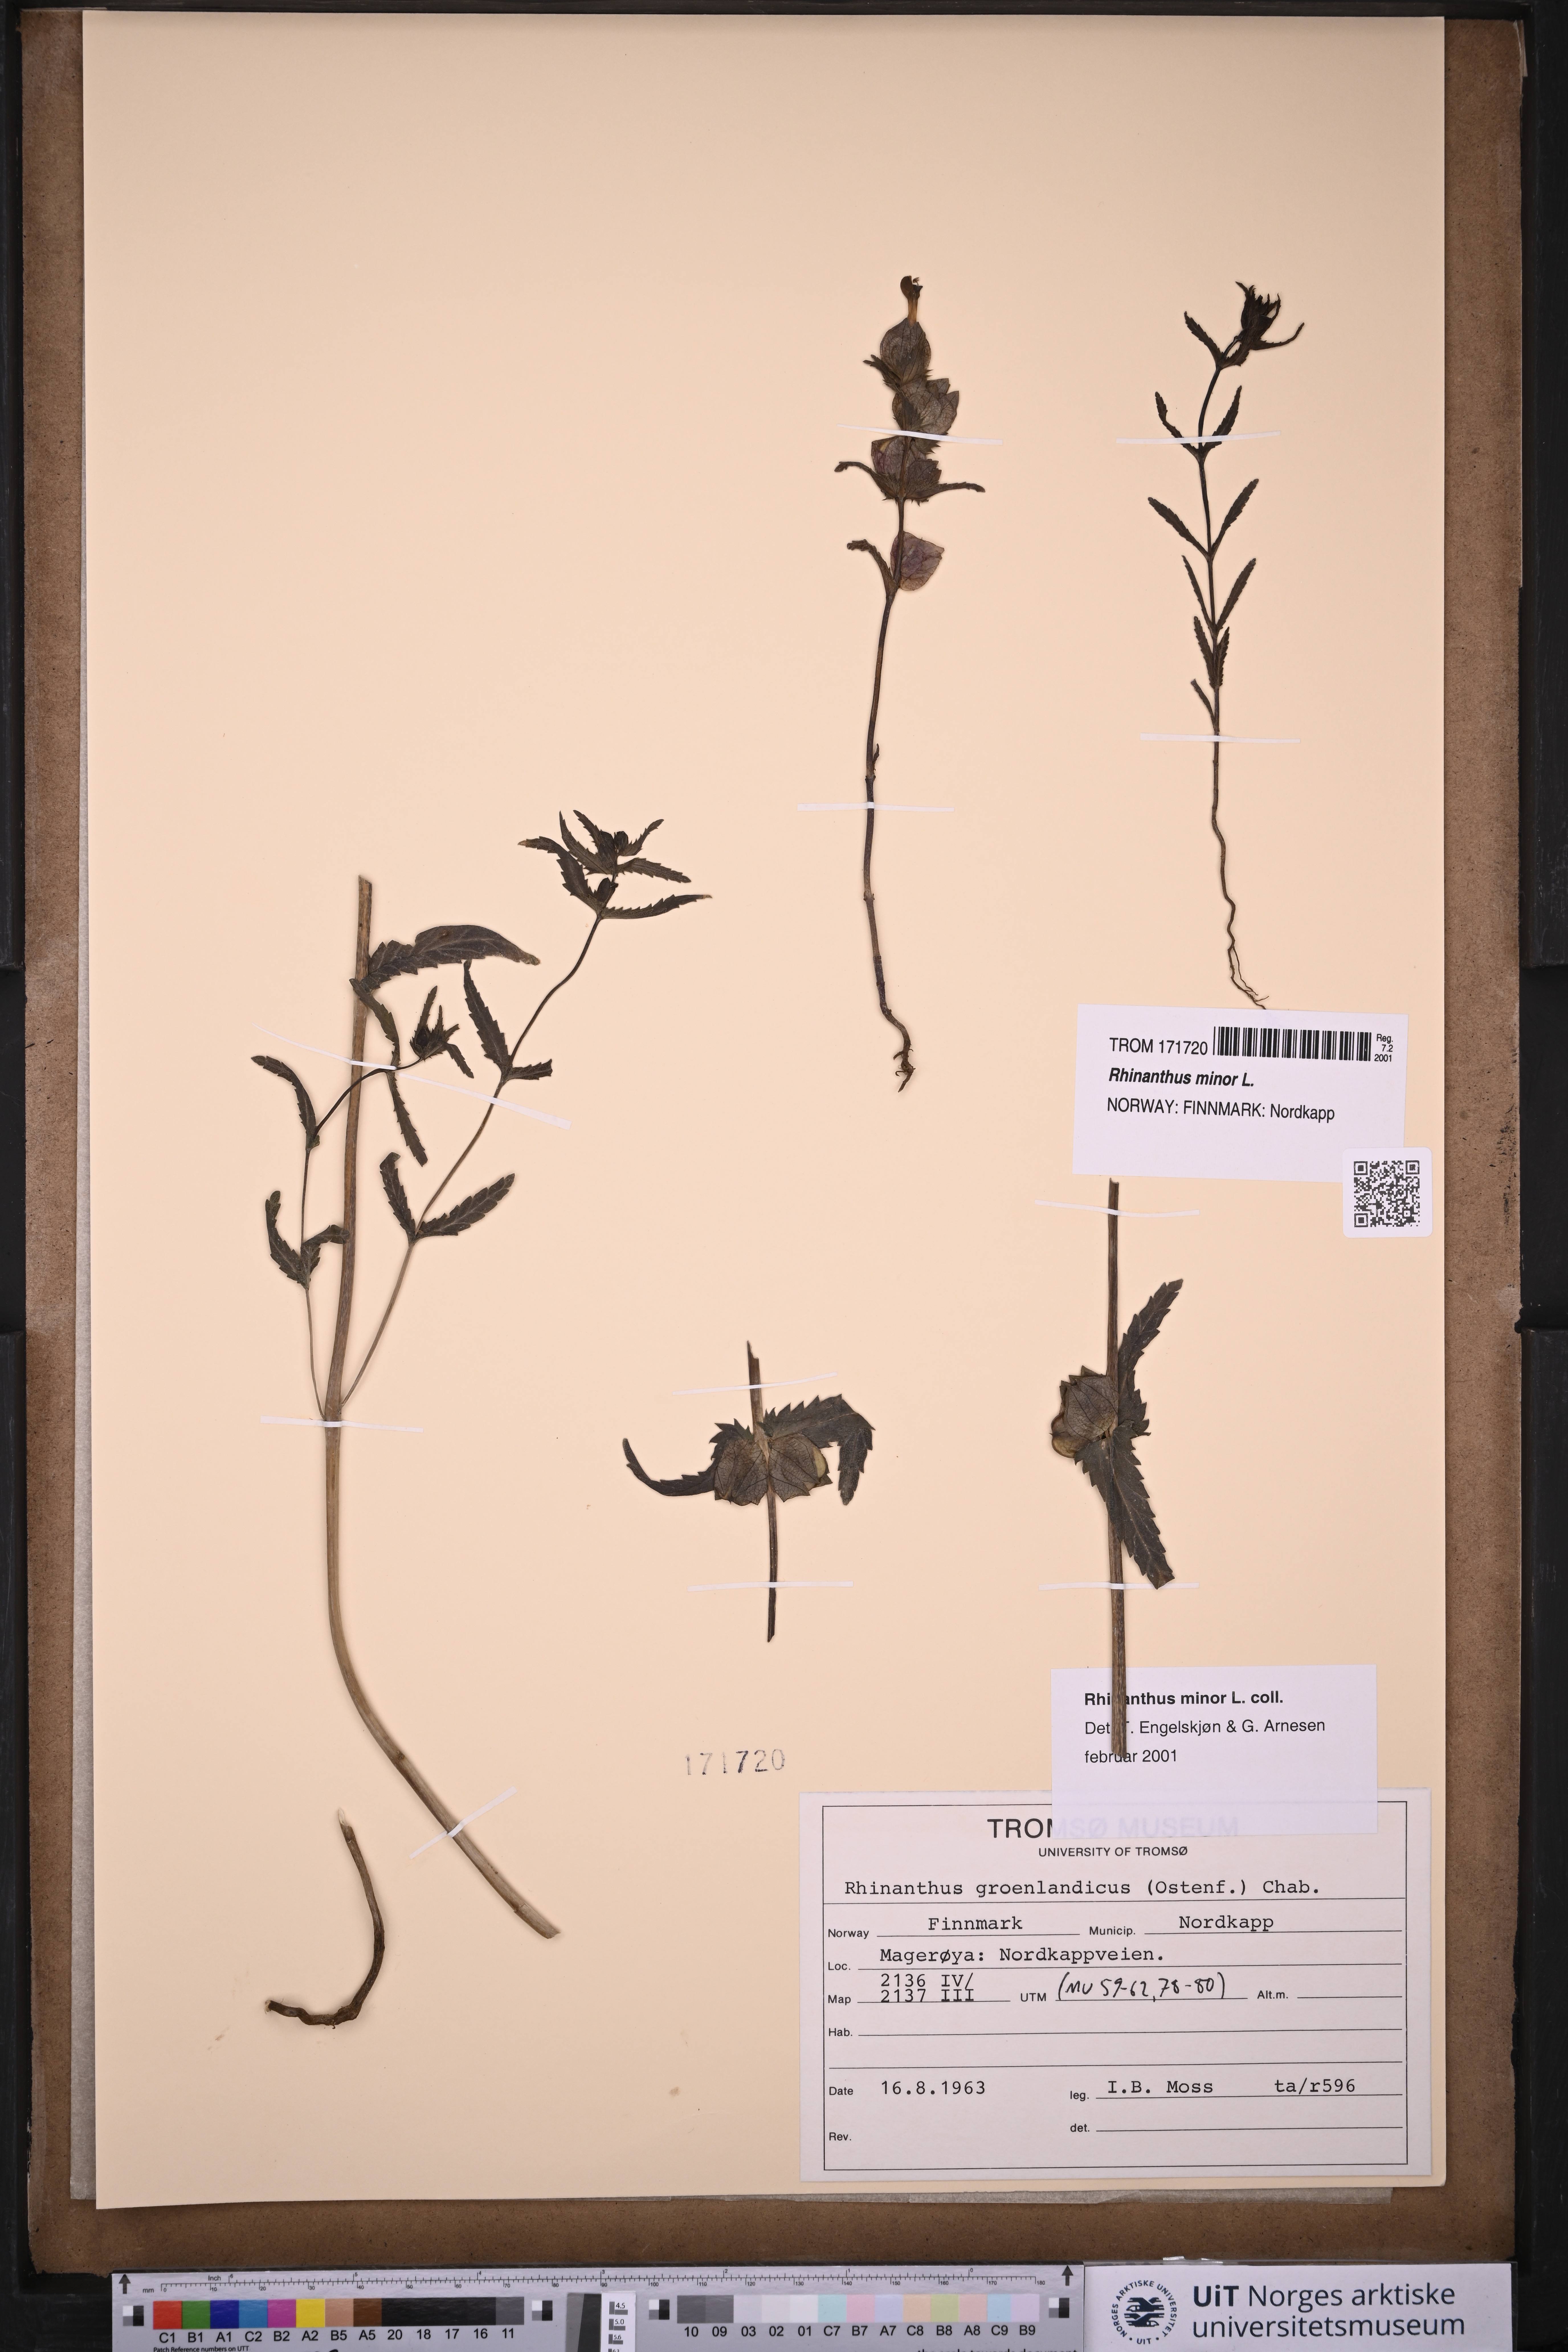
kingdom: Plantae
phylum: Tracheophyta
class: Magnoliopsida
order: Lamiales
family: Orobanchaceae
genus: Rhinanthus
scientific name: Rhinanthus minor
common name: Yellow-rattle
